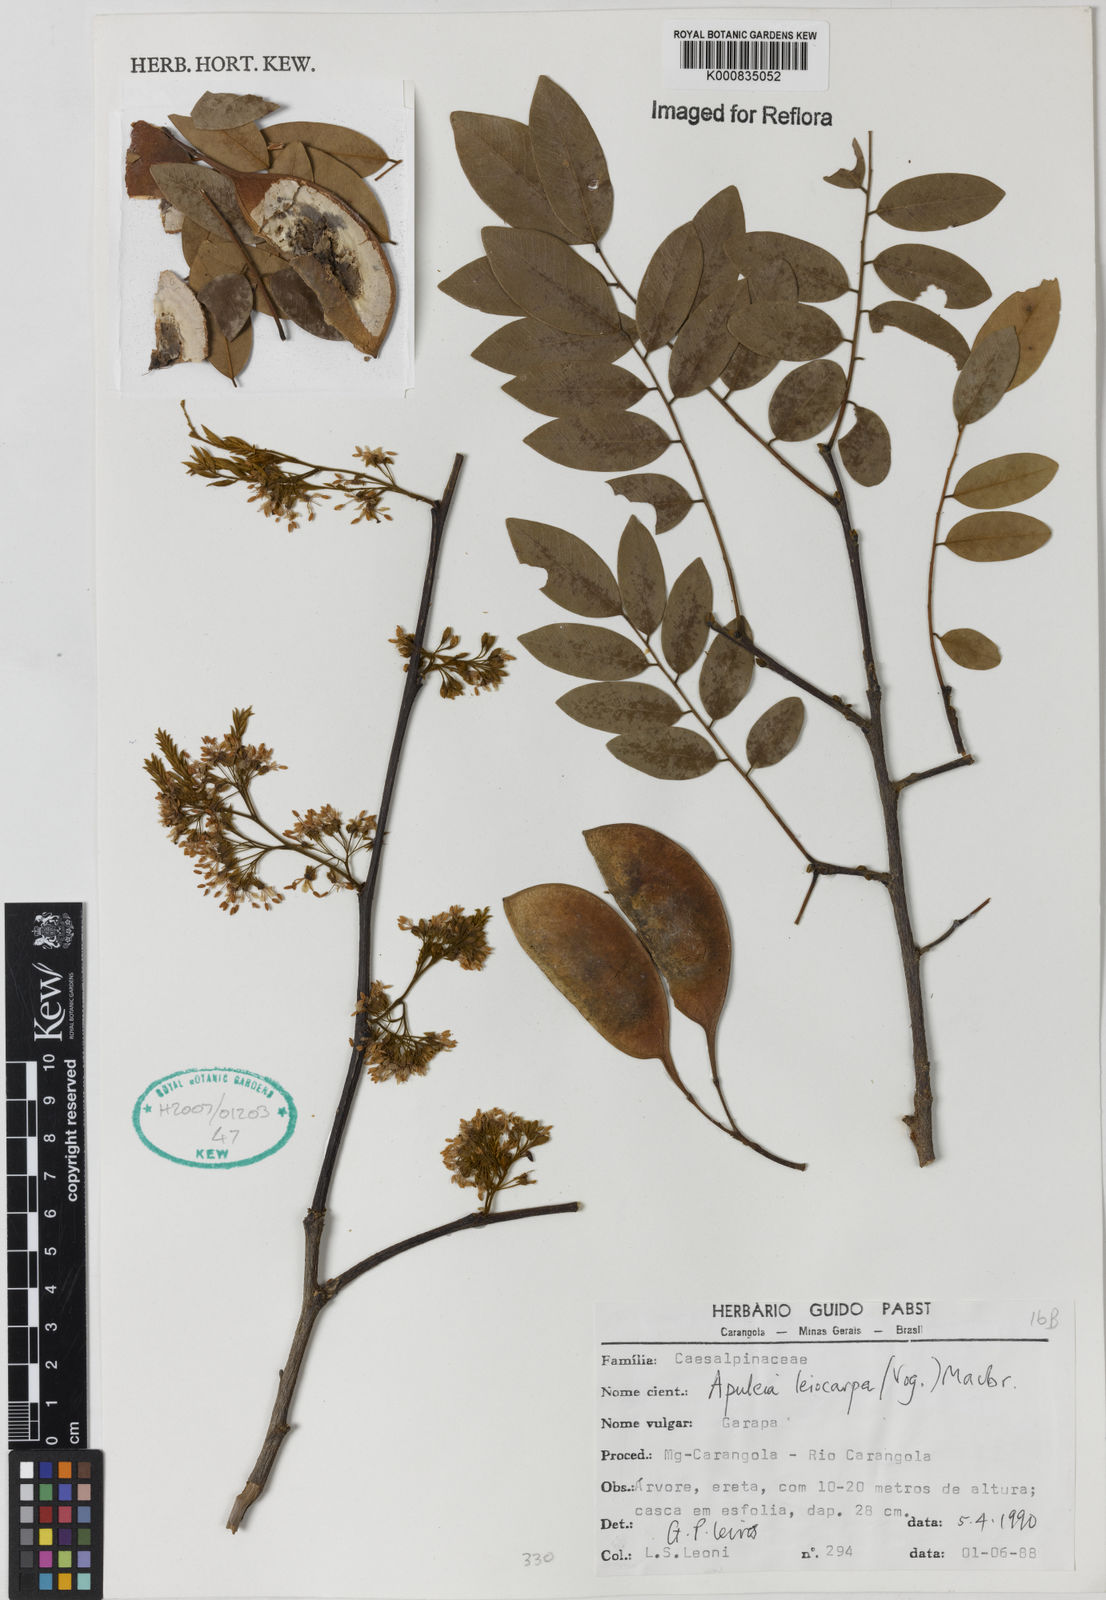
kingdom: Plantae
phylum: Tracheophyta
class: Magnoliopsida
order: Fabales
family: Fabaceae
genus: Apuleia
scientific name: Apuleia leiocarpa
